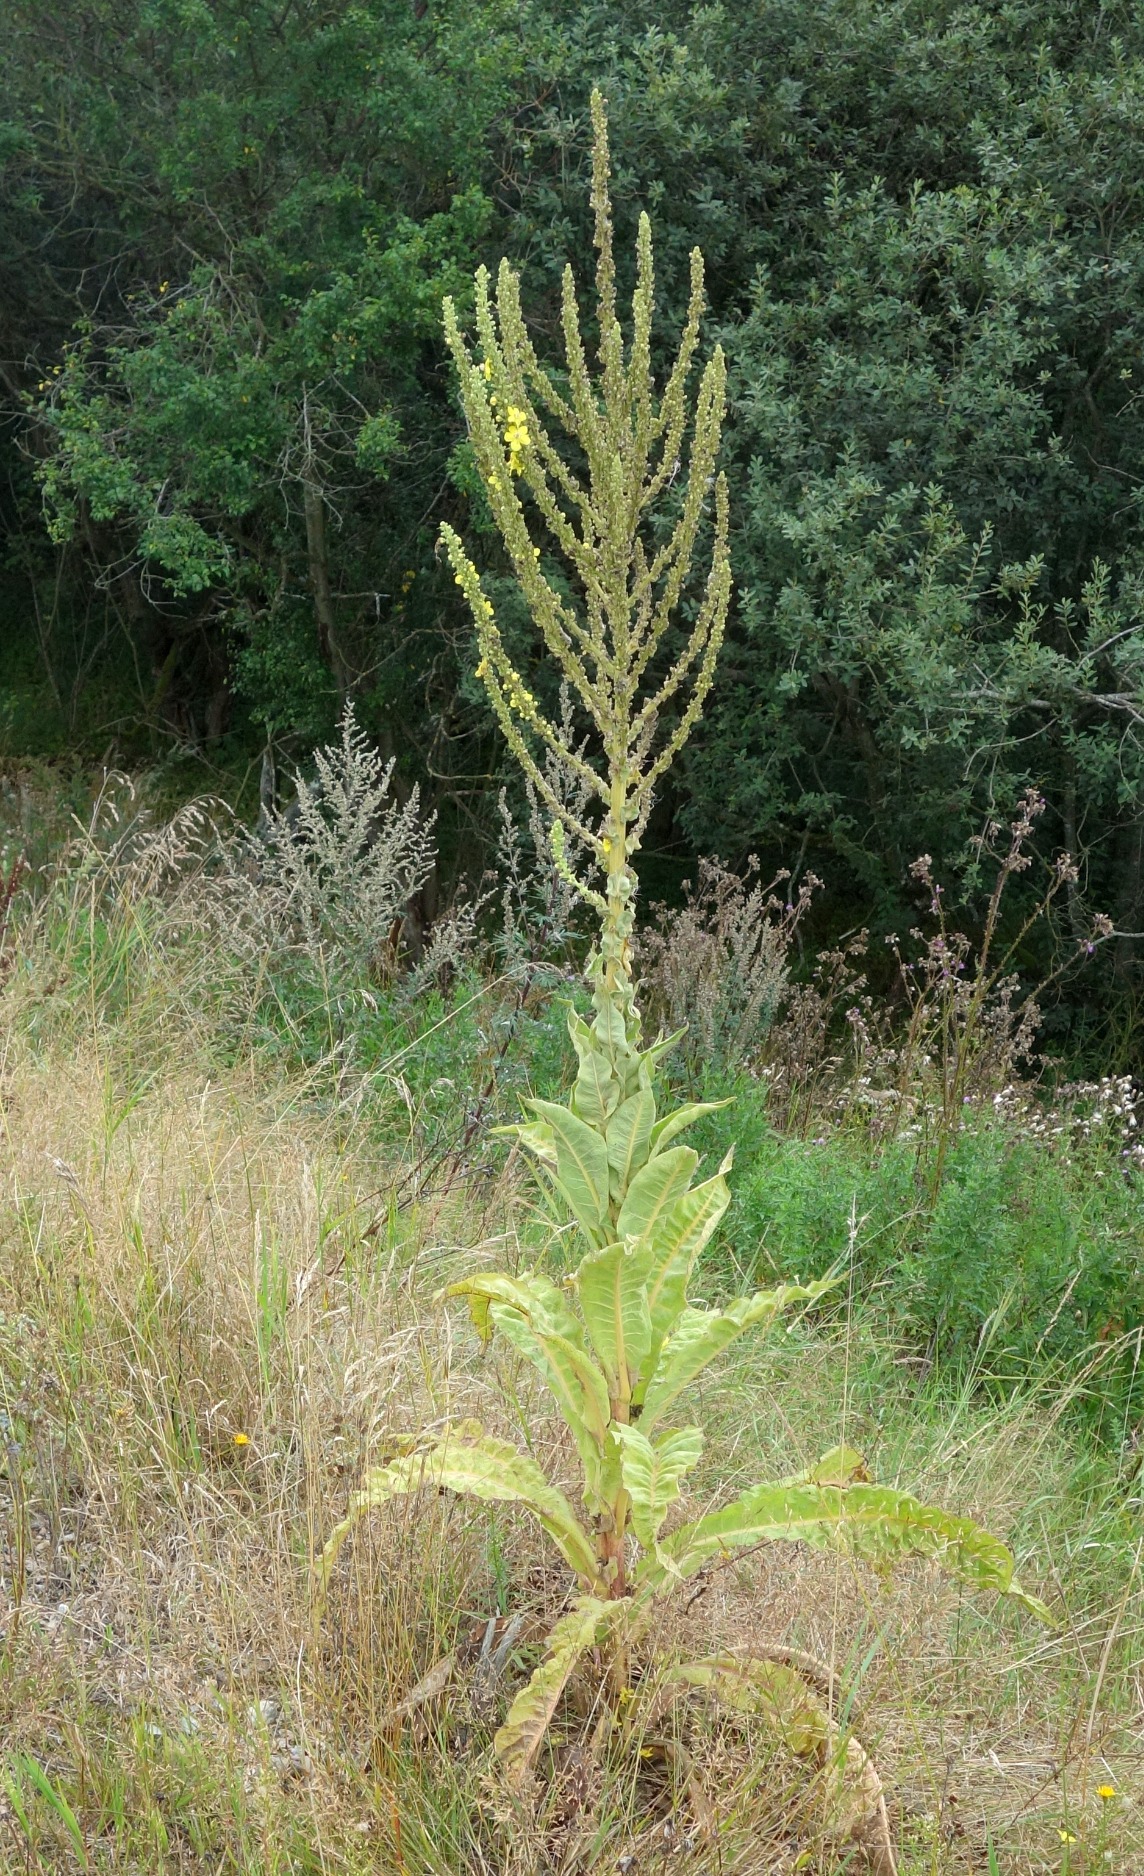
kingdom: Plantae
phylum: Tracheophyta
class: Magnoliopsida
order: Lamiales
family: Scrophulariaceae
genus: Verbascum
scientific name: Verbascum speciosum
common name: Kandelaber-kongelys
